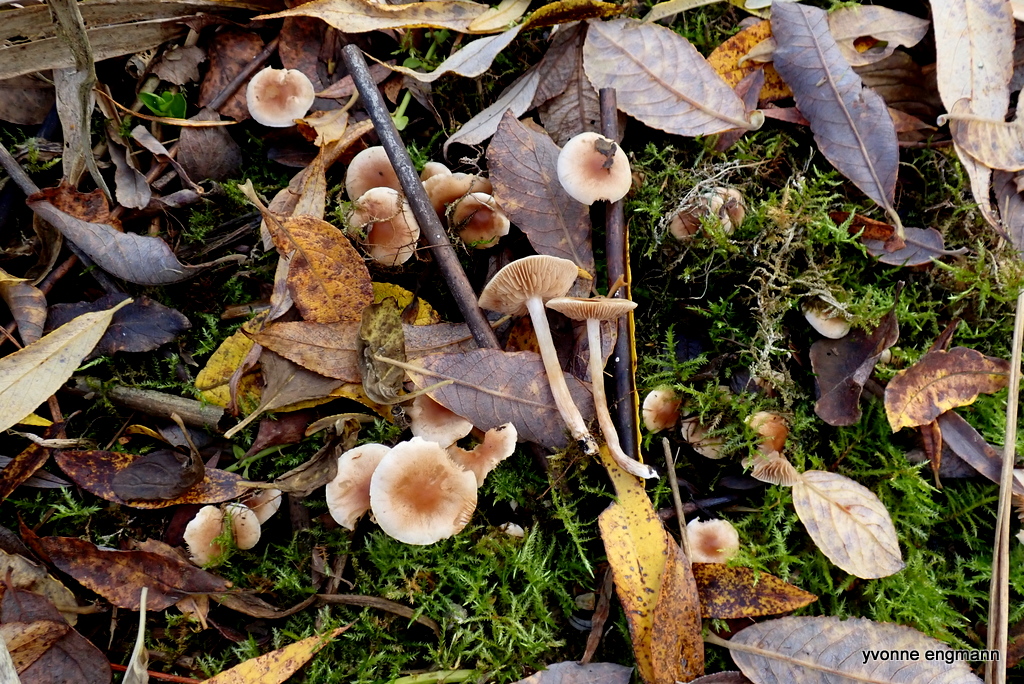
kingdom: Fungi
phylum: Basidiomycota
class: Agaricomycetes
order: Agaricales
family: Hymenogastraceae
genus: Hebeloma
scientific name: Hebeloma
